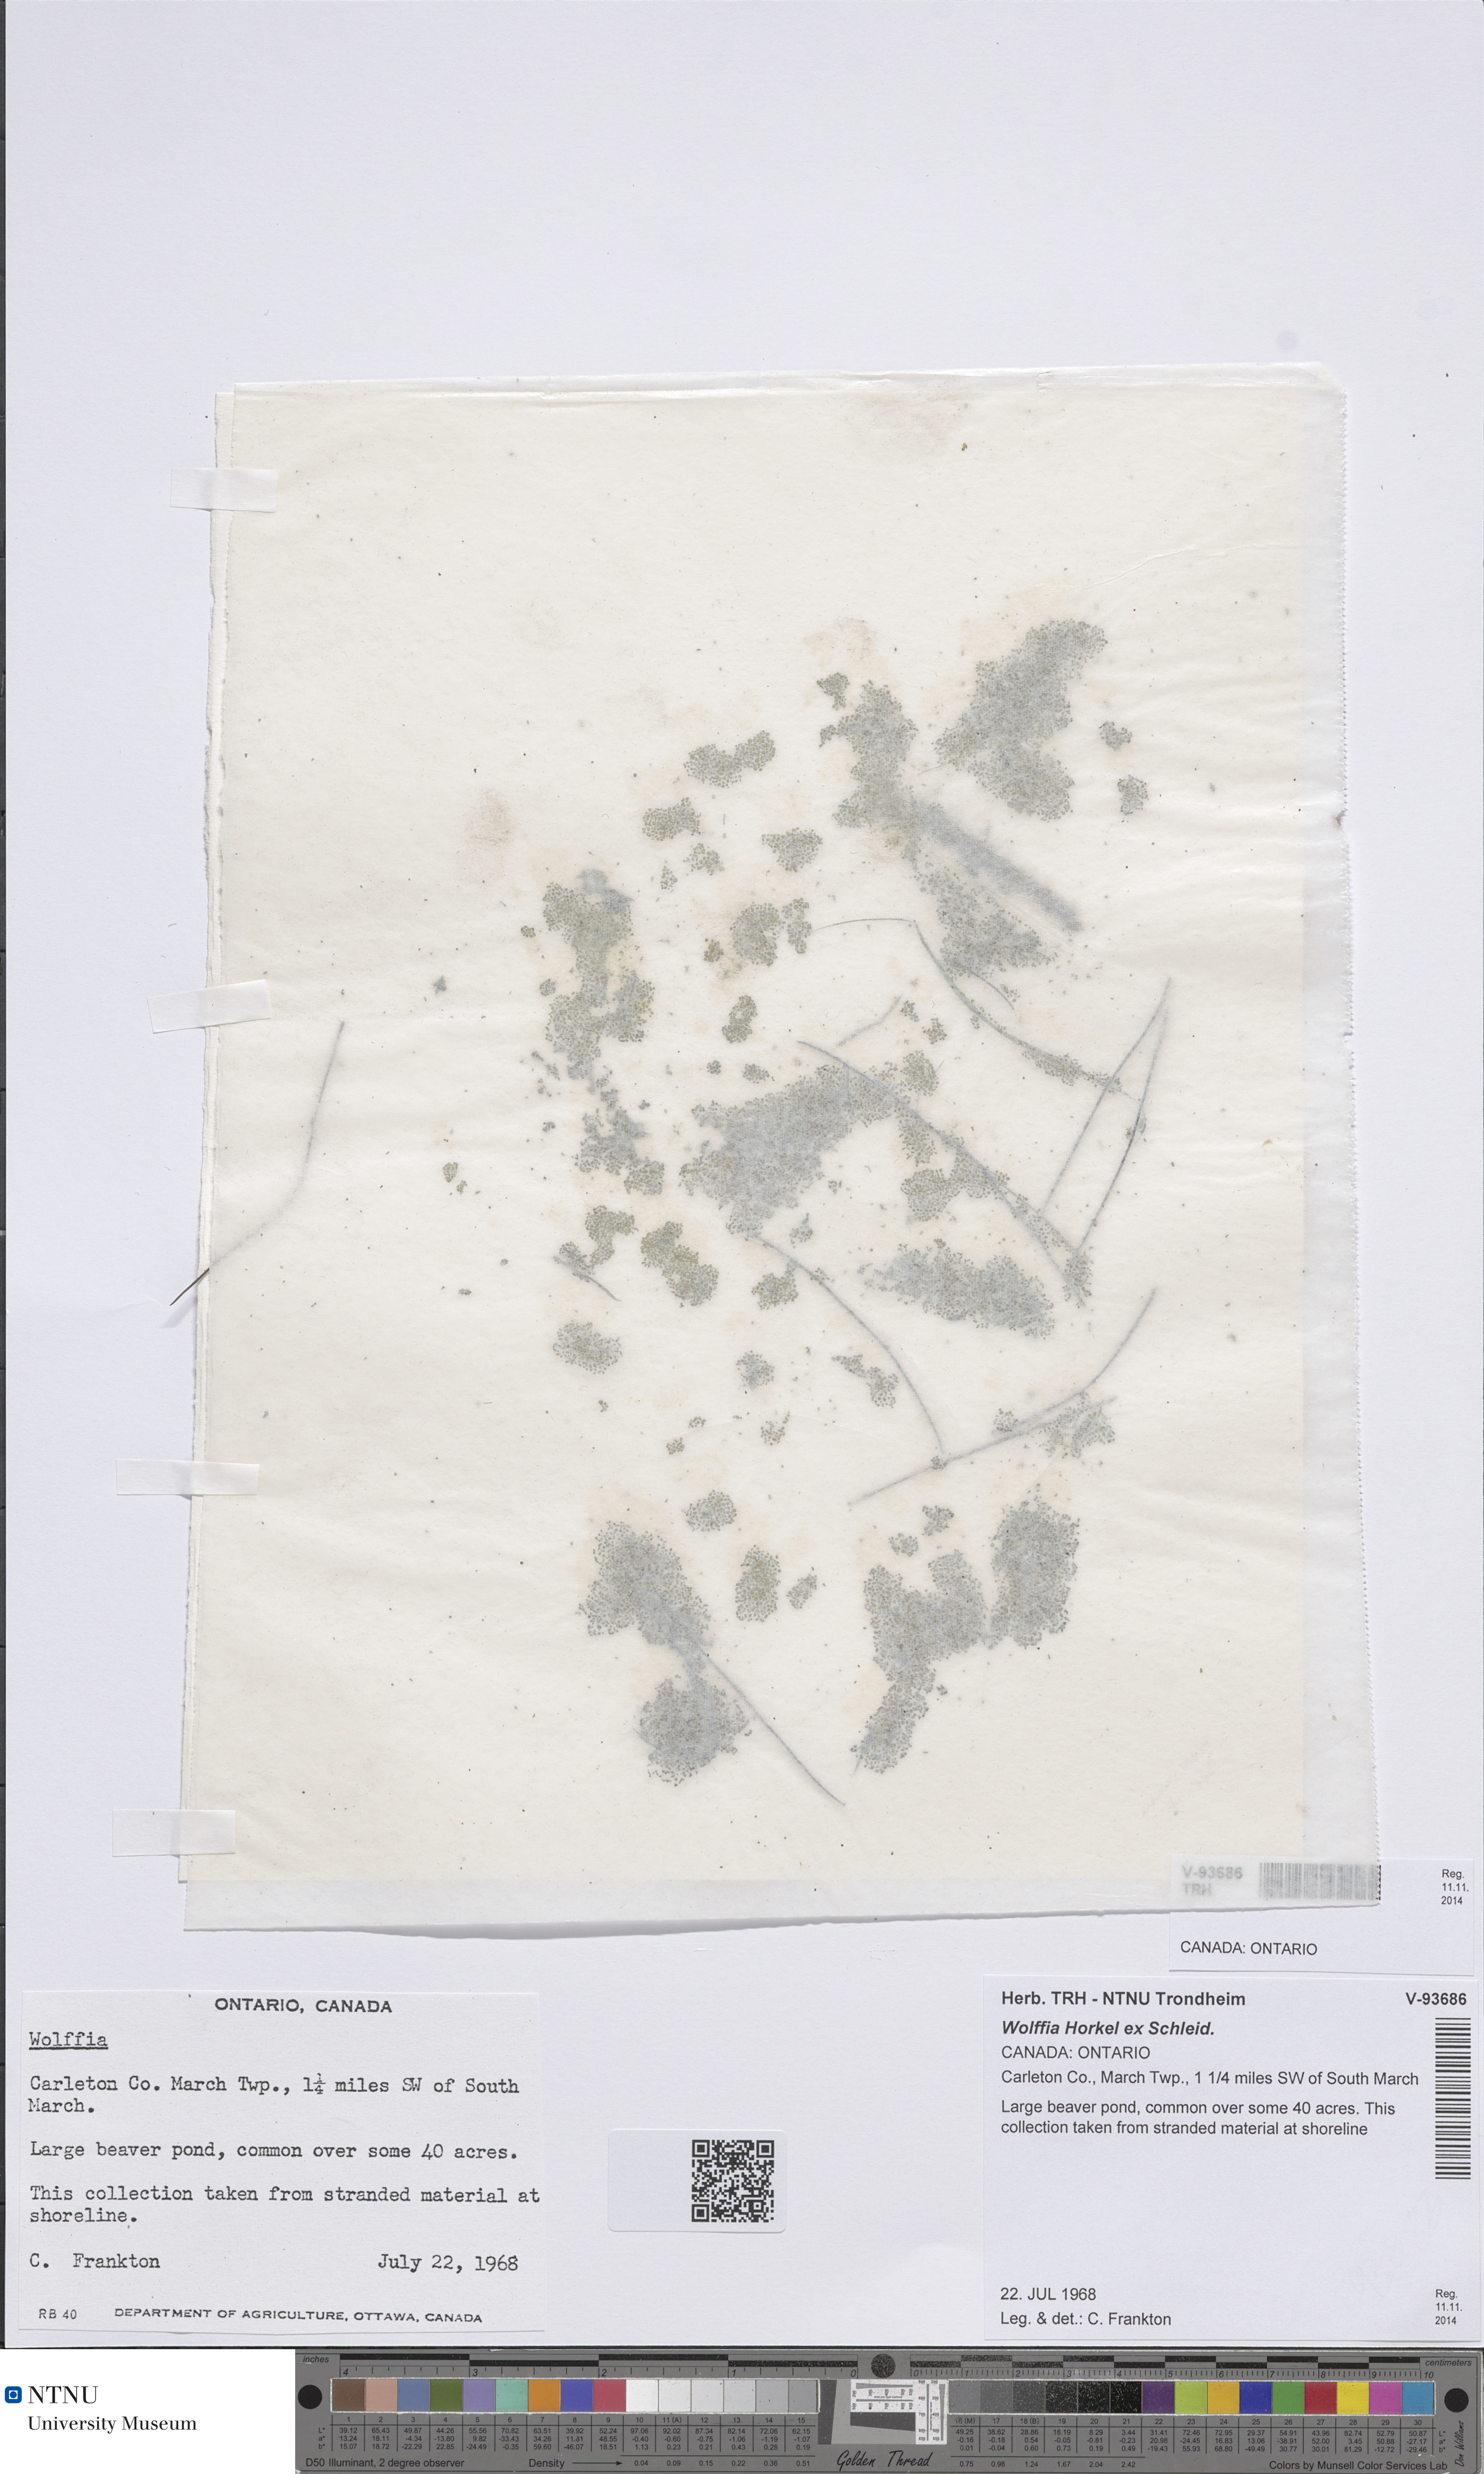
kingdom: Plantae
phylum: Tracheophyta
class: Liliopsida
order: Alismatales
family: Araceae
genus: Wolffia
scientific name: Wolffia
